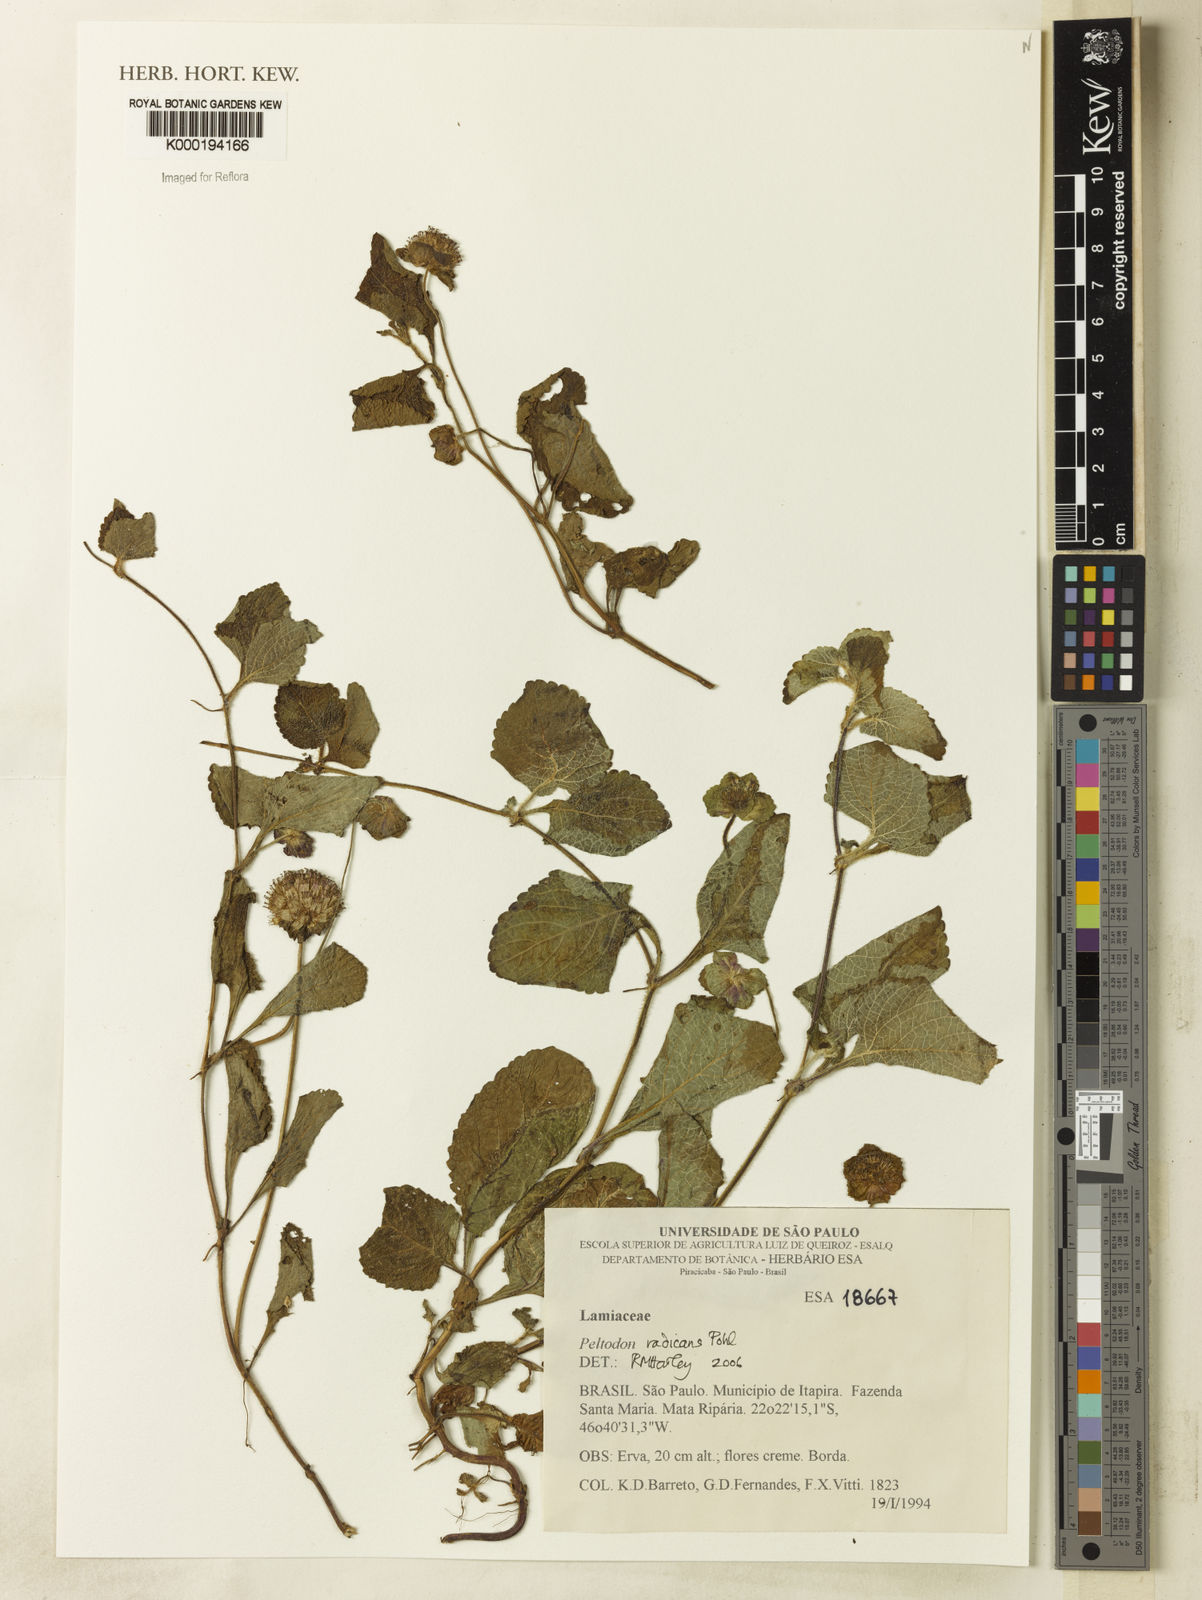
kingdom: Plantae
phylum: Tracheophyta
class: Magnoliopsida
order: Lamiales
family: Lamiaceae
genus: Hyptis
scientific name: Hyptis radicans
